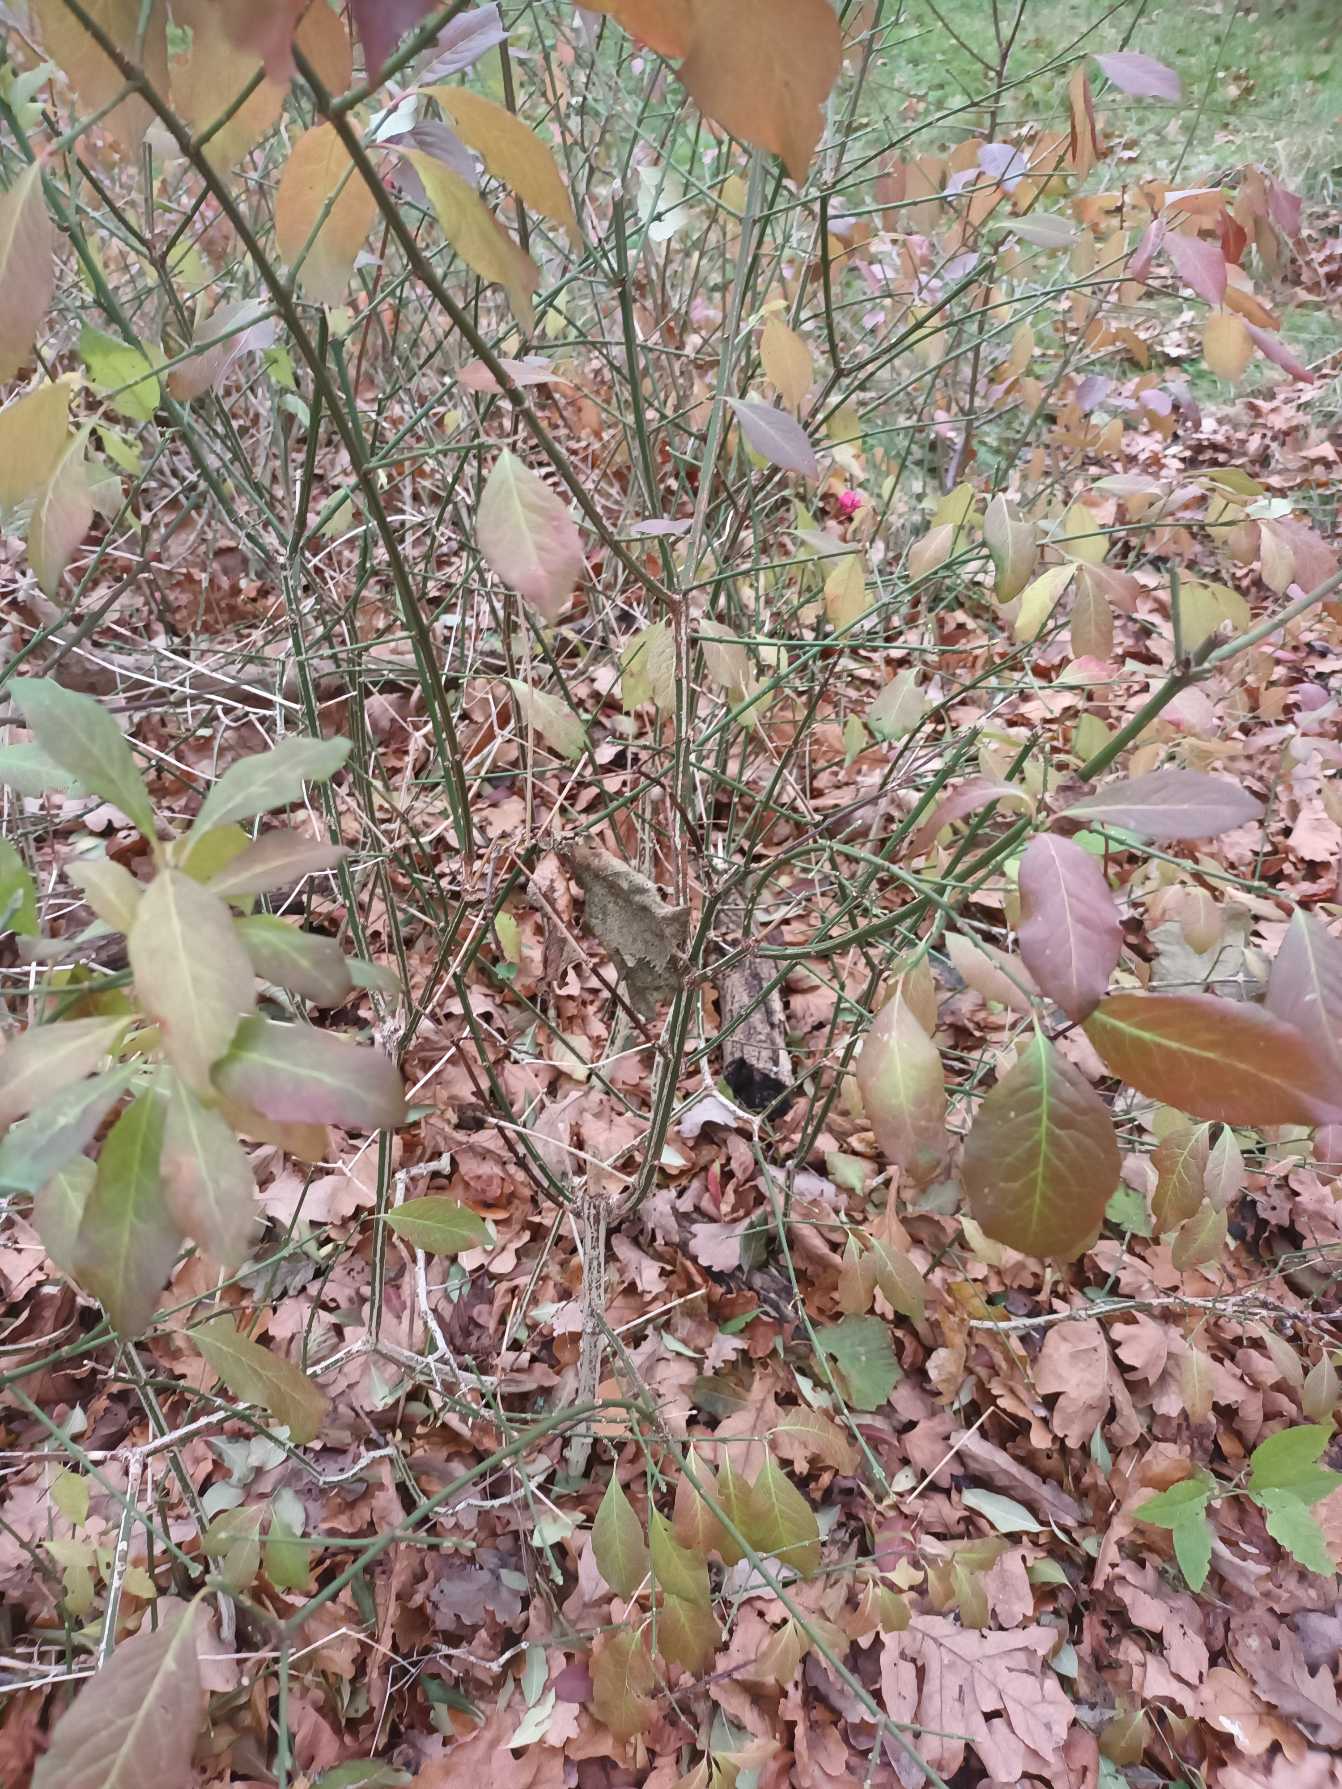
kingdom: Plantae
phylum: Tracheophyta
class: Magnoliopsida
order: Celastrales
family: Celastraceae
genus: Euonymus
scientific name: Euonymus europaeus
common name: Benved
